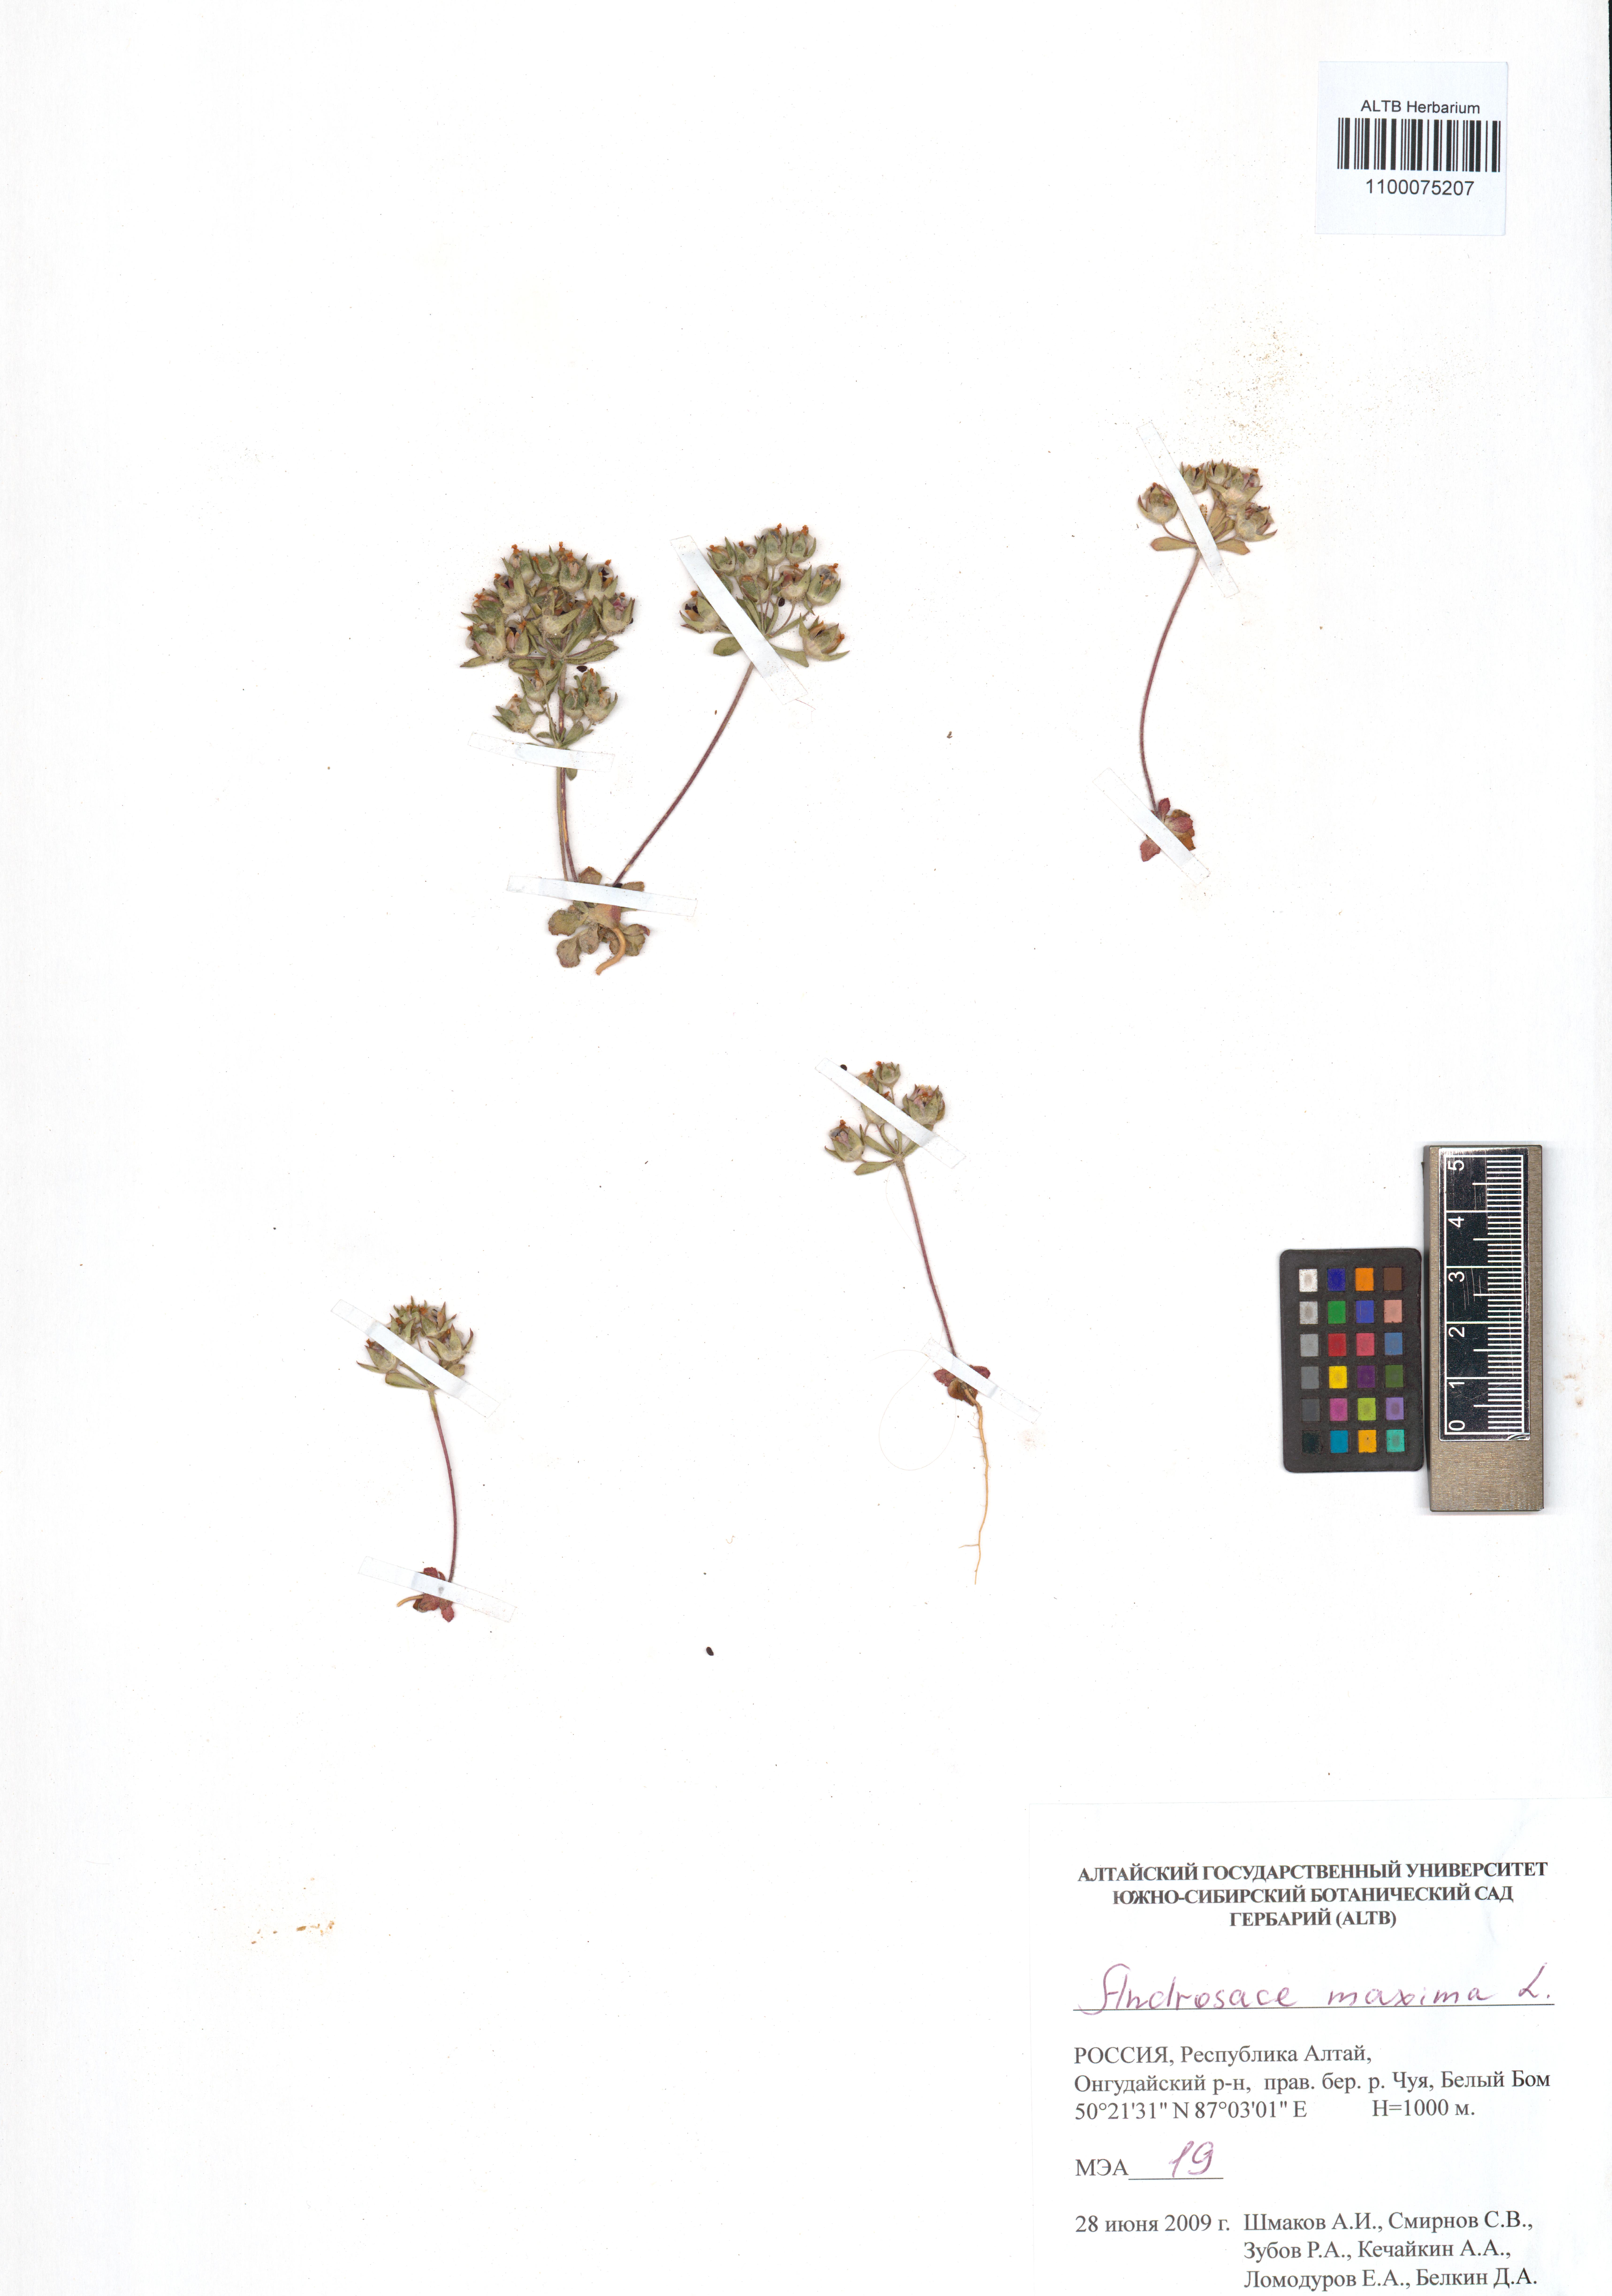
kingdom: Plantae
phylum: Tracheophyta
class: Magnoliopsida
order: Ericales
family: Primulaceae
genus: Androsace
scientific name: Androsace maxima
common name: Annual androsace
